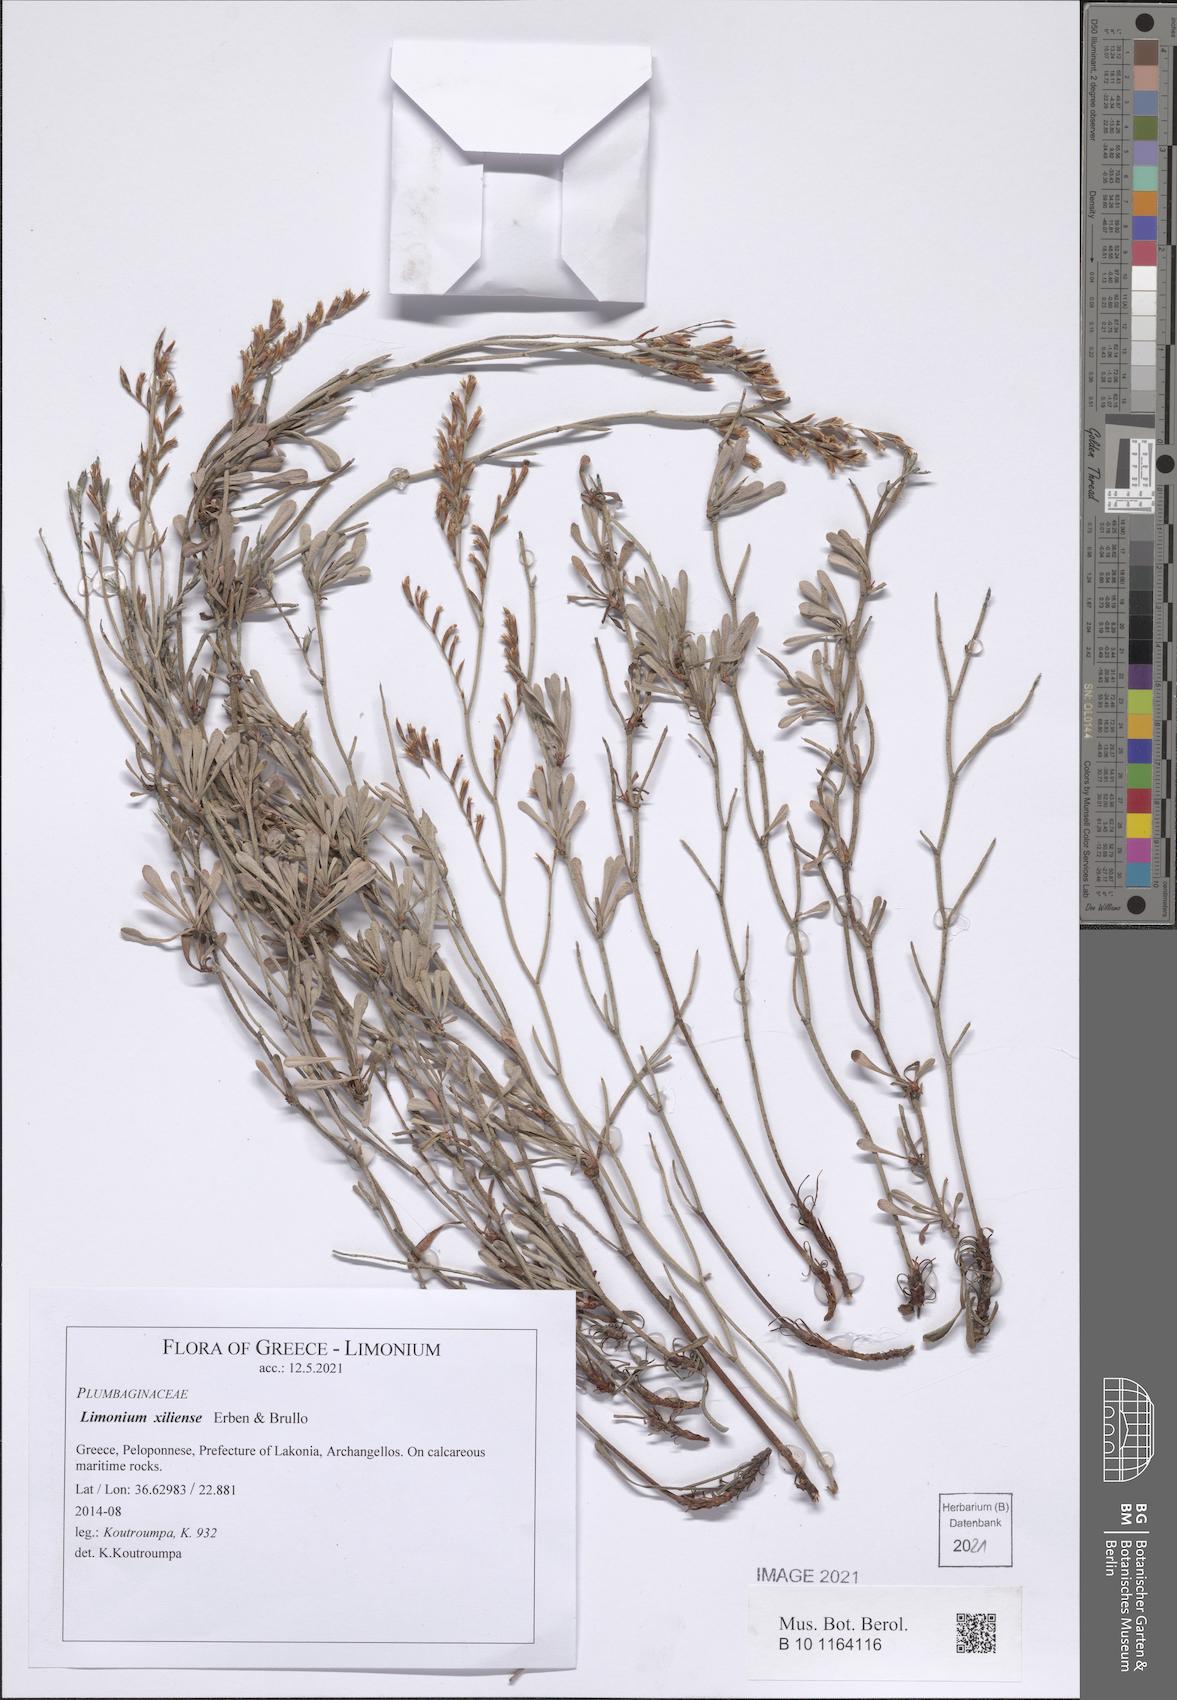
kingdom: Plantae
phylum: Tracheophyta
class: Magnoliopsida
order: Caryophyllales
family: Plumbaginaceae
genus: Limonium
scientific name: Limonium xiliense
